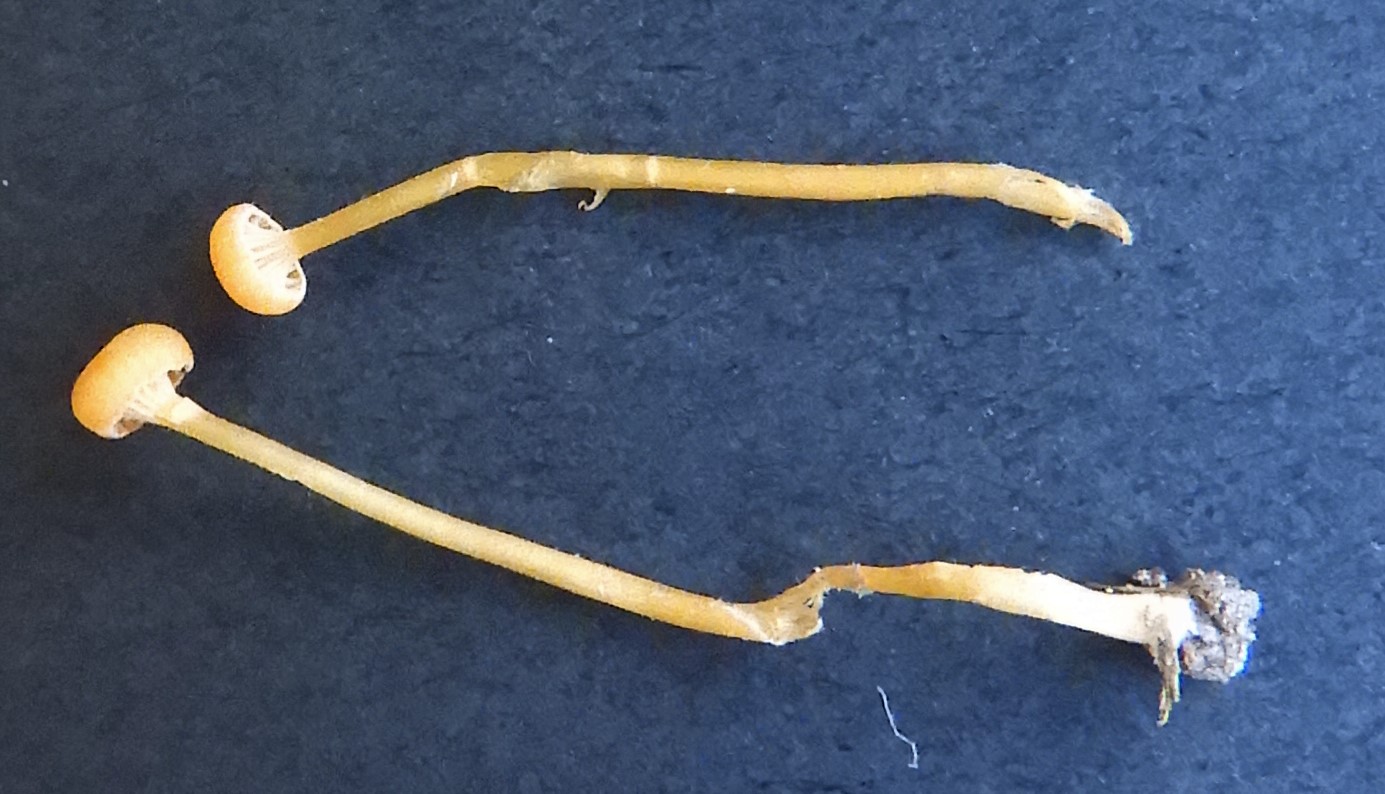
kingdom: Fungi
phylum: Basidiomycota
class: Agaricomycetes
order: Hymenochaetales
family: Rickenellaceae
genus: Rickenella
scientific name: Rickenella fibula
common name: orange mosnavlehat
